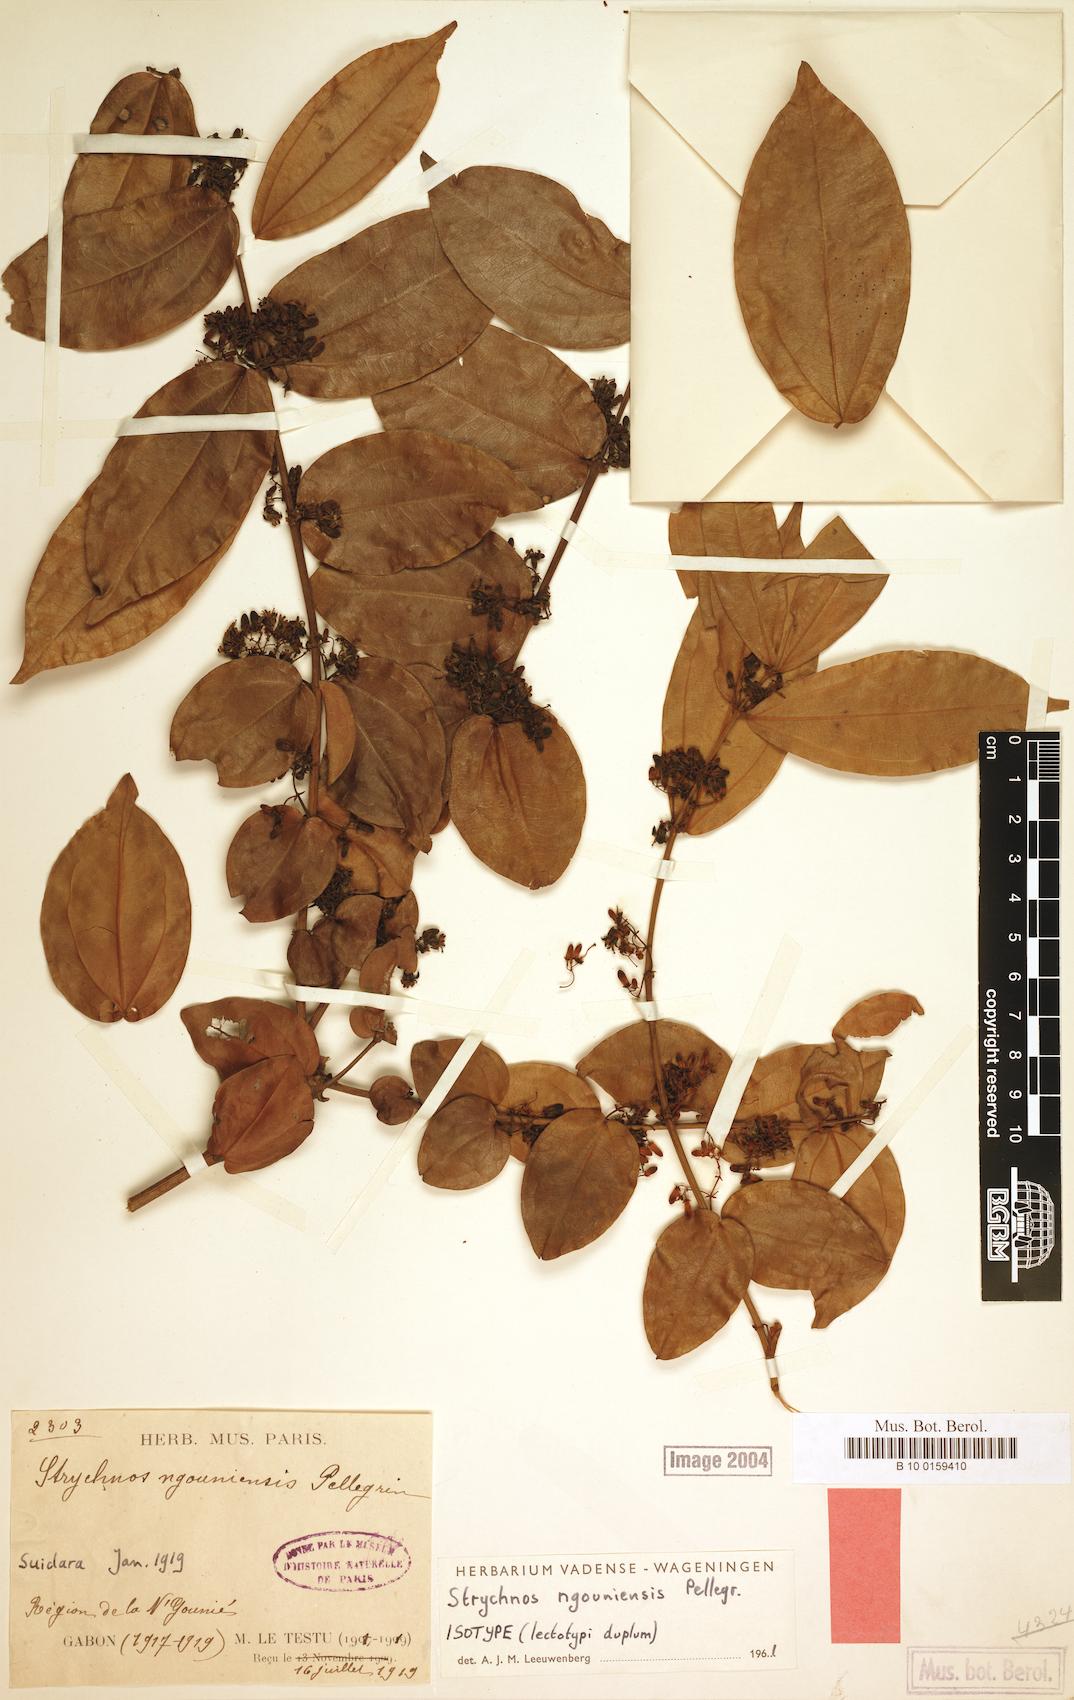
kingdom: Plantae
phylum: Tracheophyta
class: Magnoliopsida
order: Gentianales
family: Loganiaceae
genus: Strychnos
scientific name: Strychnos ngouniensis
